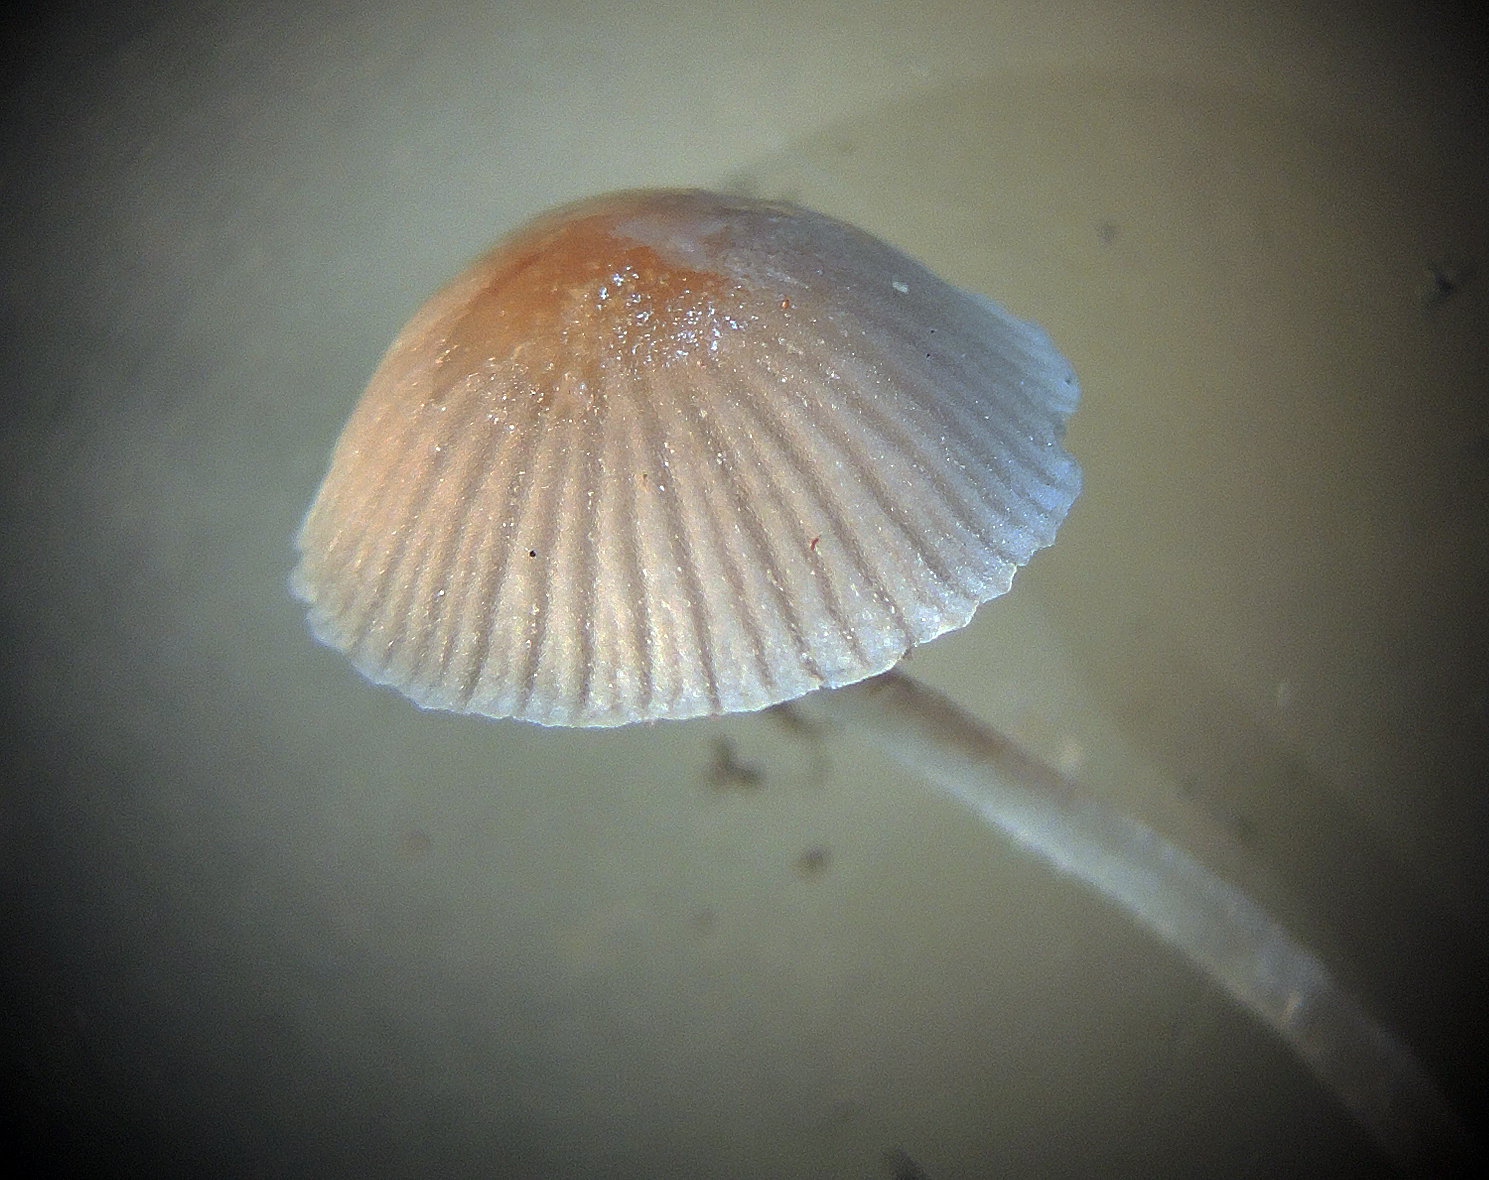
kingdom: Fungi
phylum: Basidiomycota
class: Agaricomycetes
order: Agaricales
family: Psathyrellaceae
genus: Psathyrella
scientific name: Psathyrella senex
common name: brunøjet mørkhat
